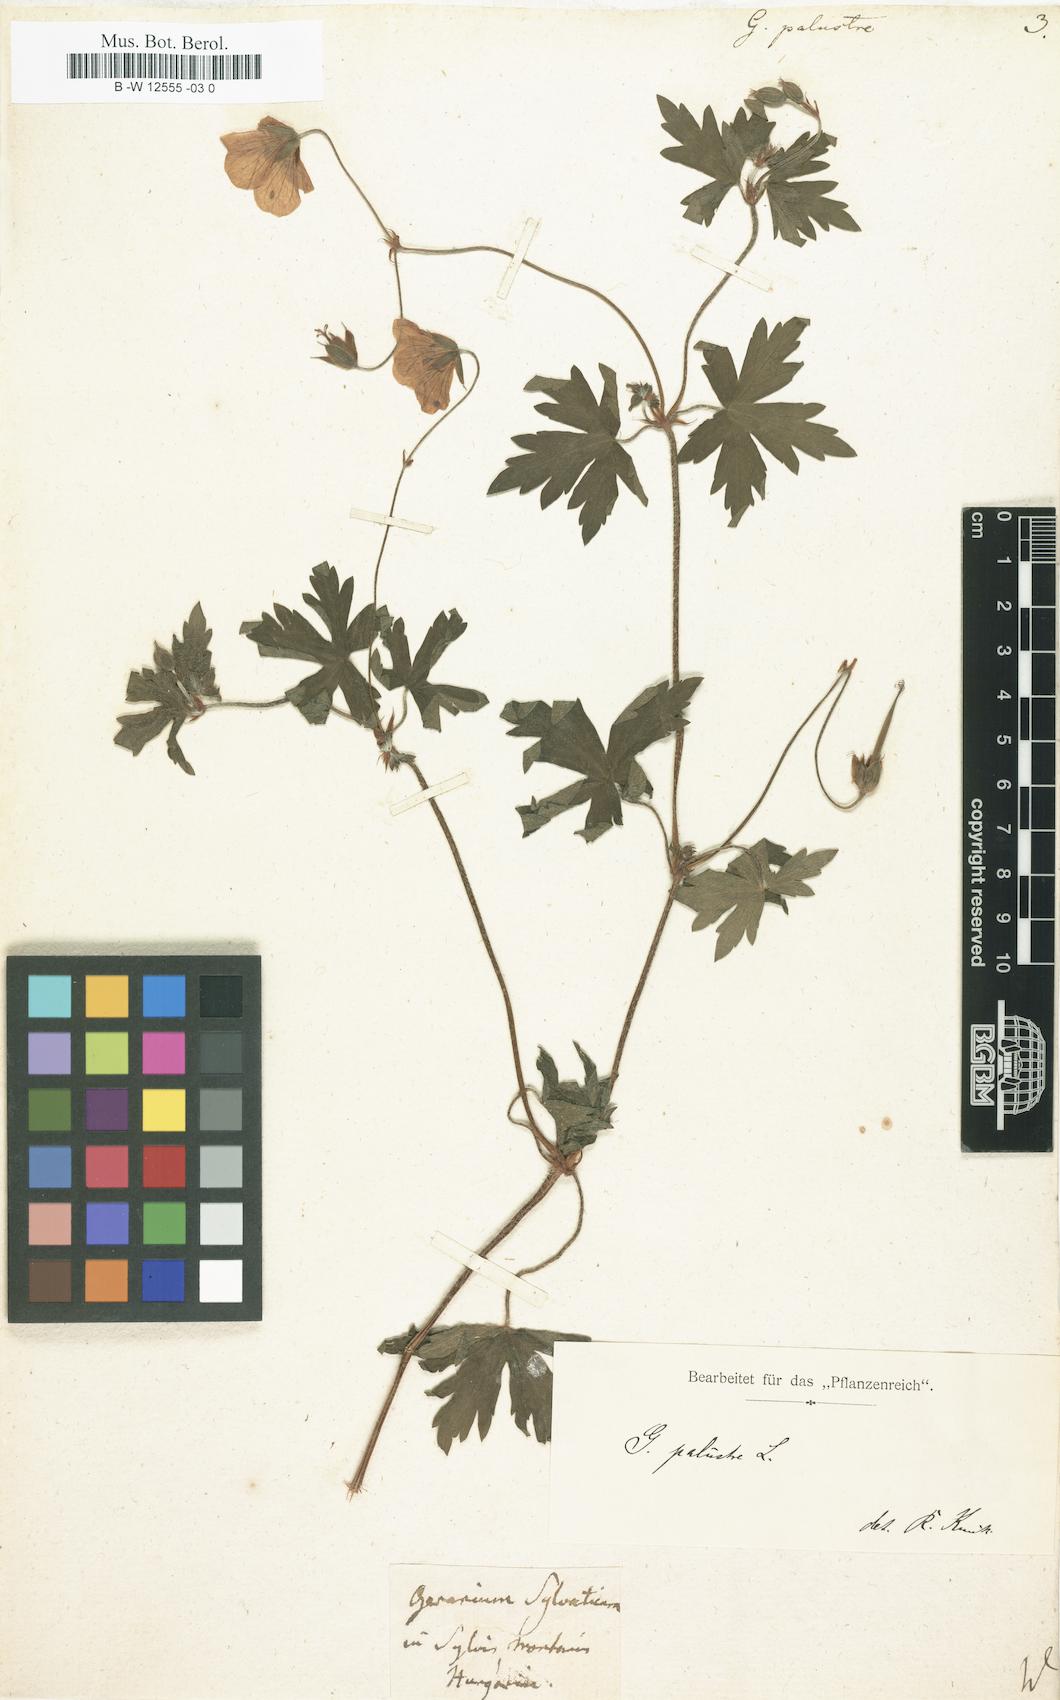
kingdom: Plantae
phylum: Tracheophyta
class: Magnoliopsida
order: Geraniales
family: Geraniaceae
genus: Geranium
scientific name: Geranium palustre
